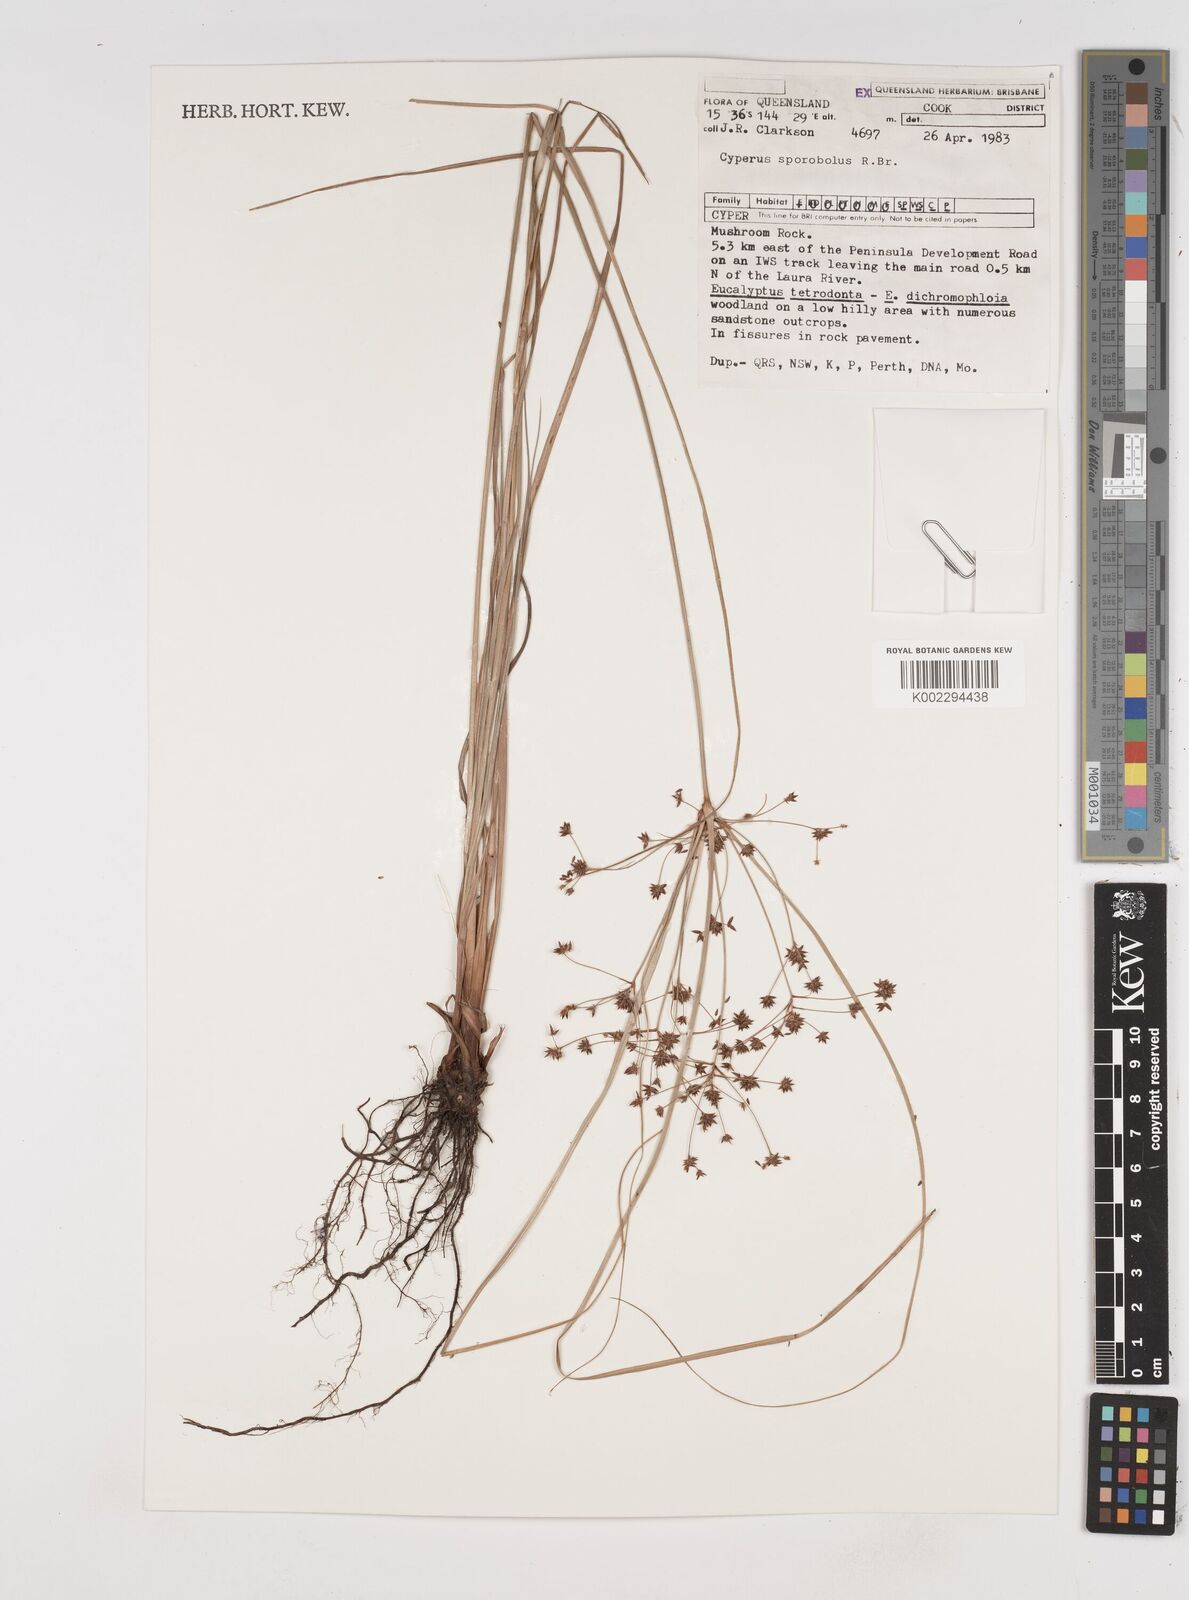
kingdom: Plantae
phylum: Tracheophyta
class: Liliopsida
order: Poales
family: Cyperaceae
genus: Cyperus
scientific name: Cyperus sporobolus
